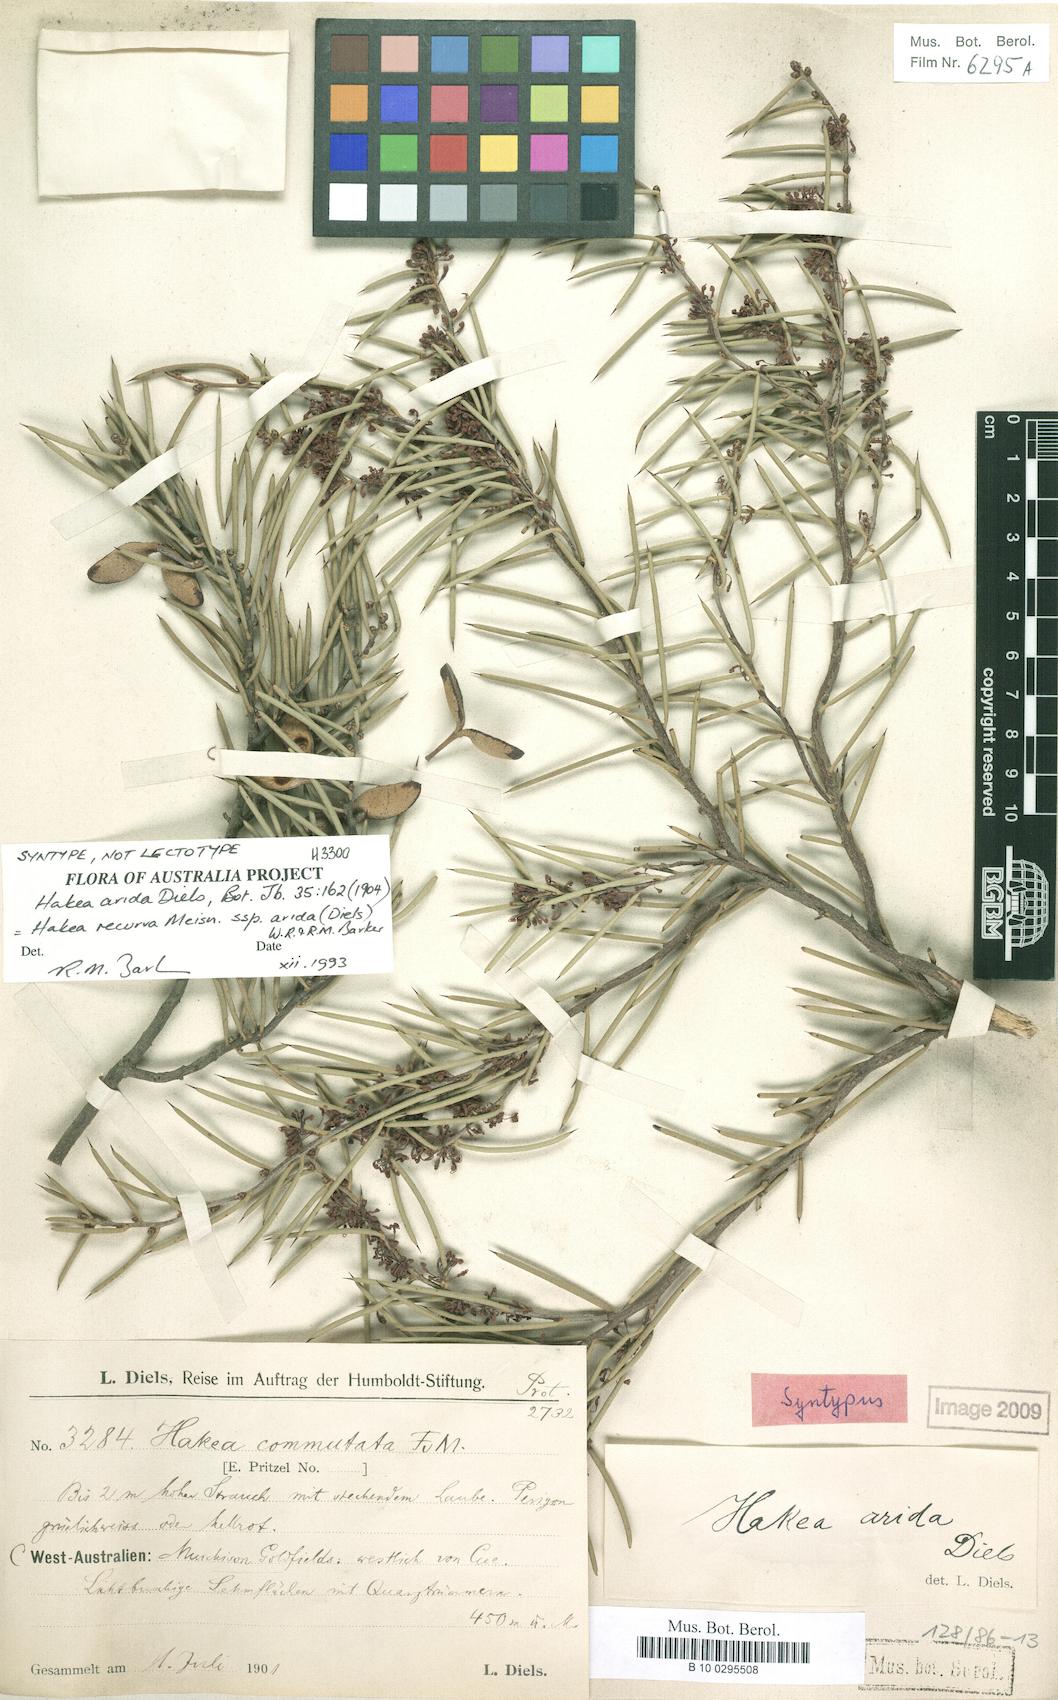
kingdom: Plantae
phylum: Tracheophyta
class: Magnoliopsida
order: Proteales
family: Proteaceae
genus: Hakea
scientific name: Hakea recurva
